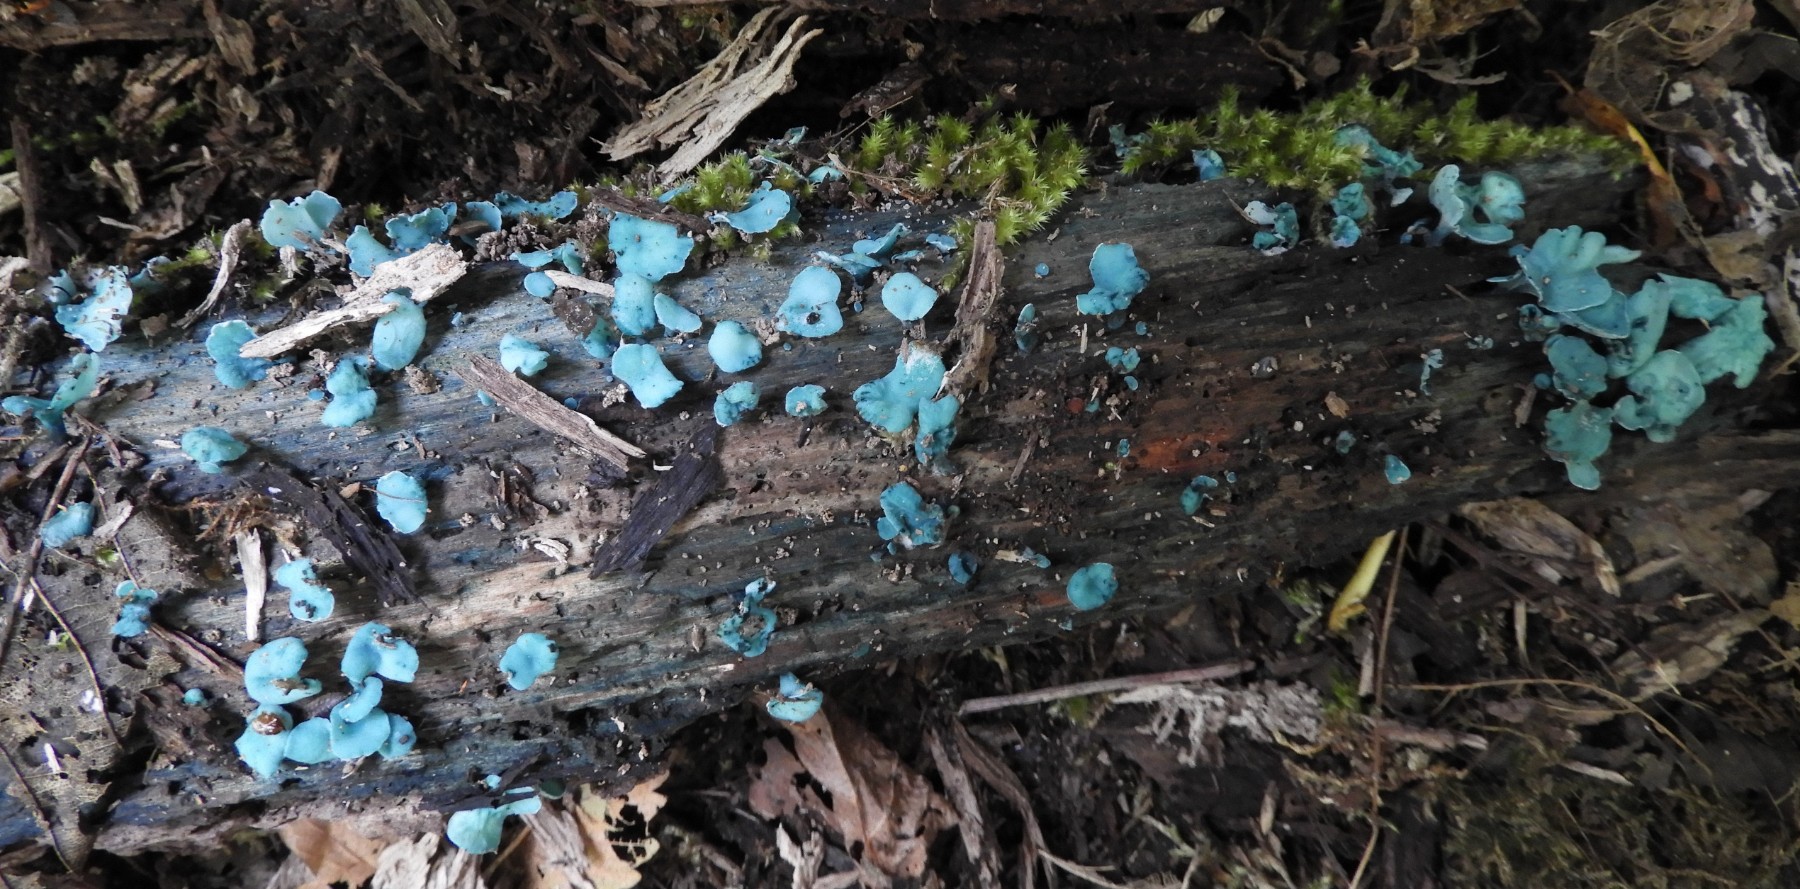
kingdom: Fungi
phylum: Ascomycota
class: Leotiomycetes
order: Helotiales
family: Chlorociboriaceae
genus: Chlorociboria
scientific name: Chlorociboria aeruginascens
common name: almindelig grønskive
